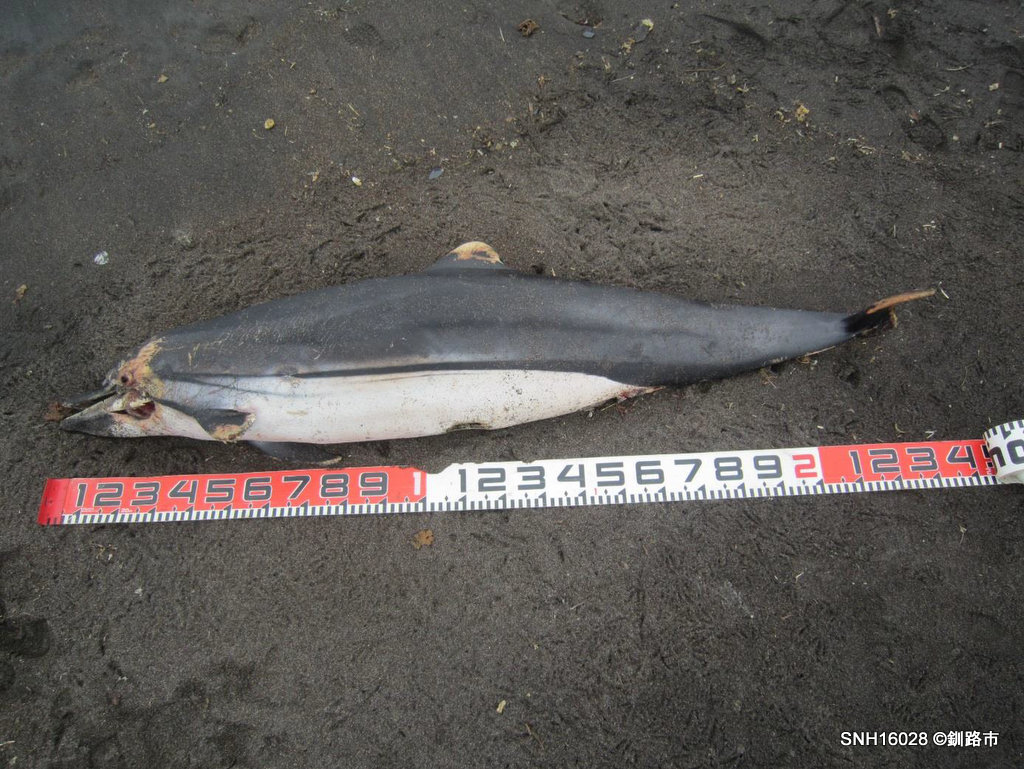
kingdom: Animalia
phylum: Chordata
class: Mammalia
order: Cetacea
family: Delphinidae
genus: Stenella
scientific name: Stenella coeruleoalba
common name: Striped dolphin
